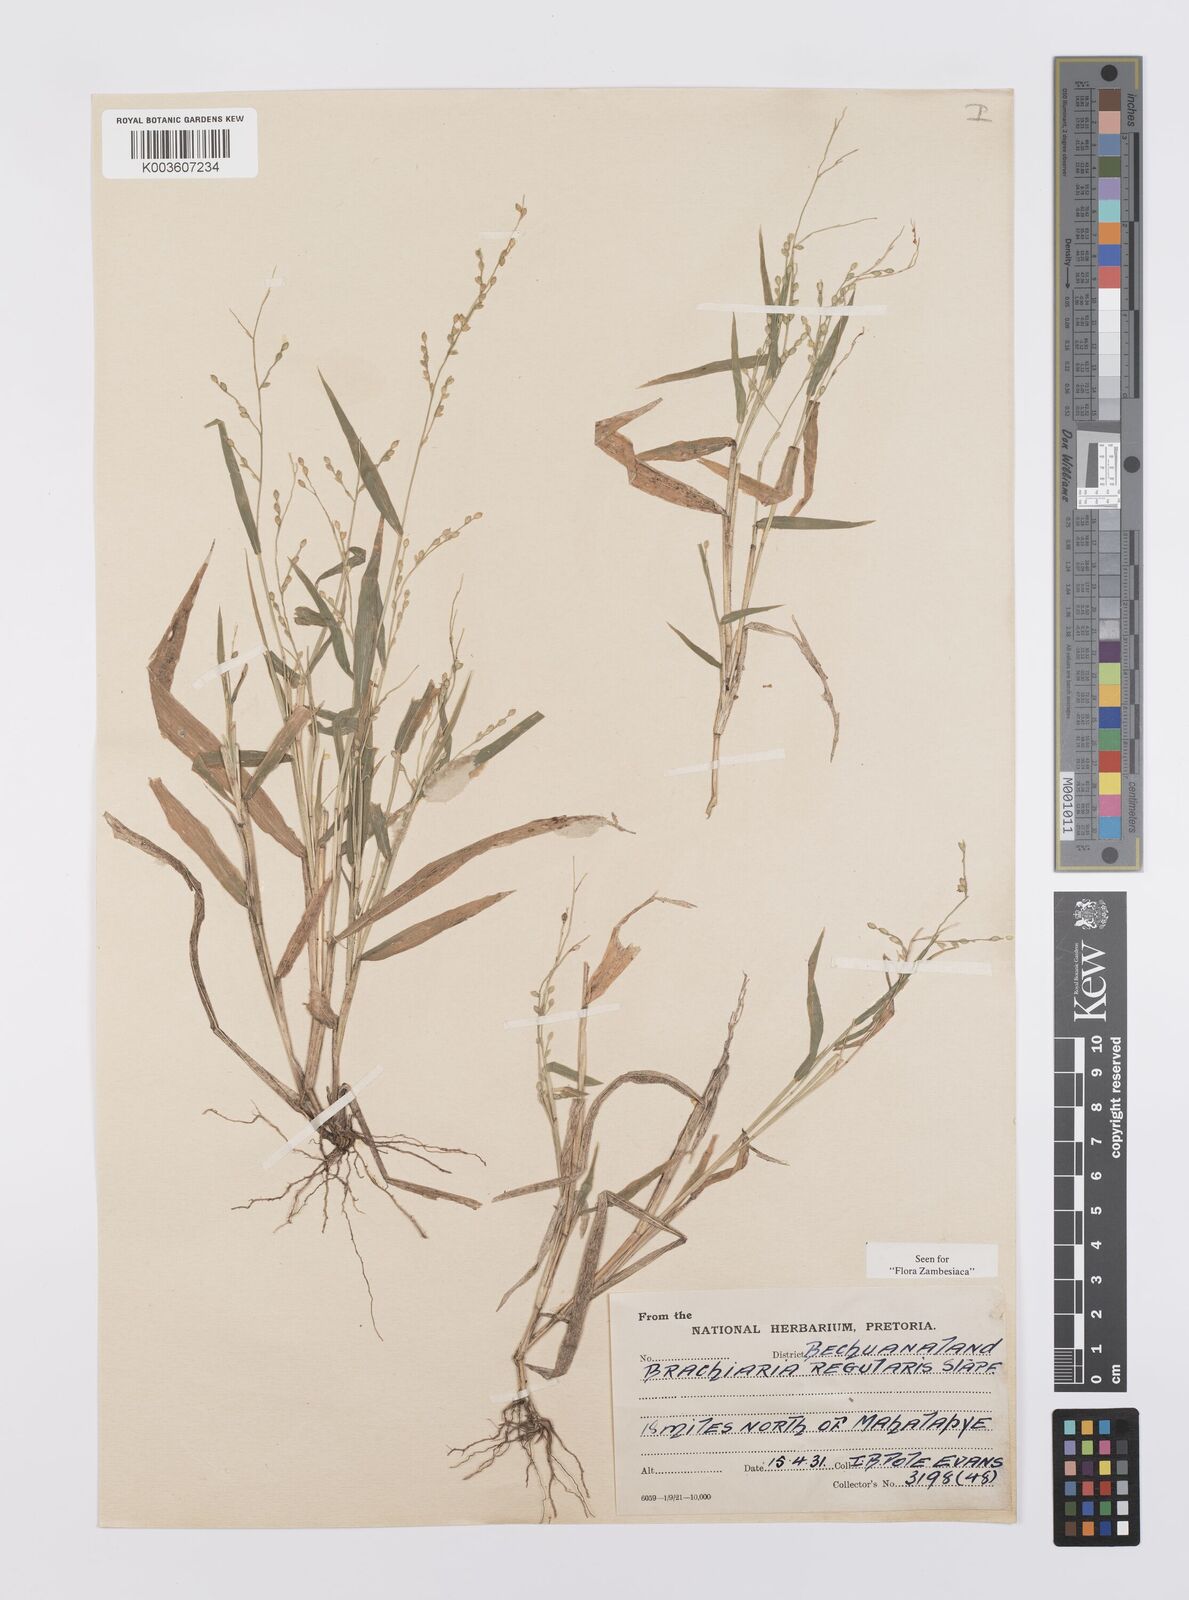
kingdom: Plantae
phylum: Tracheophyta
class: Liliopsida
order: Poales
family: Poaceae
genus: Urochloa
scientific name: Urochloa deflexa
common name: Guinea millet
